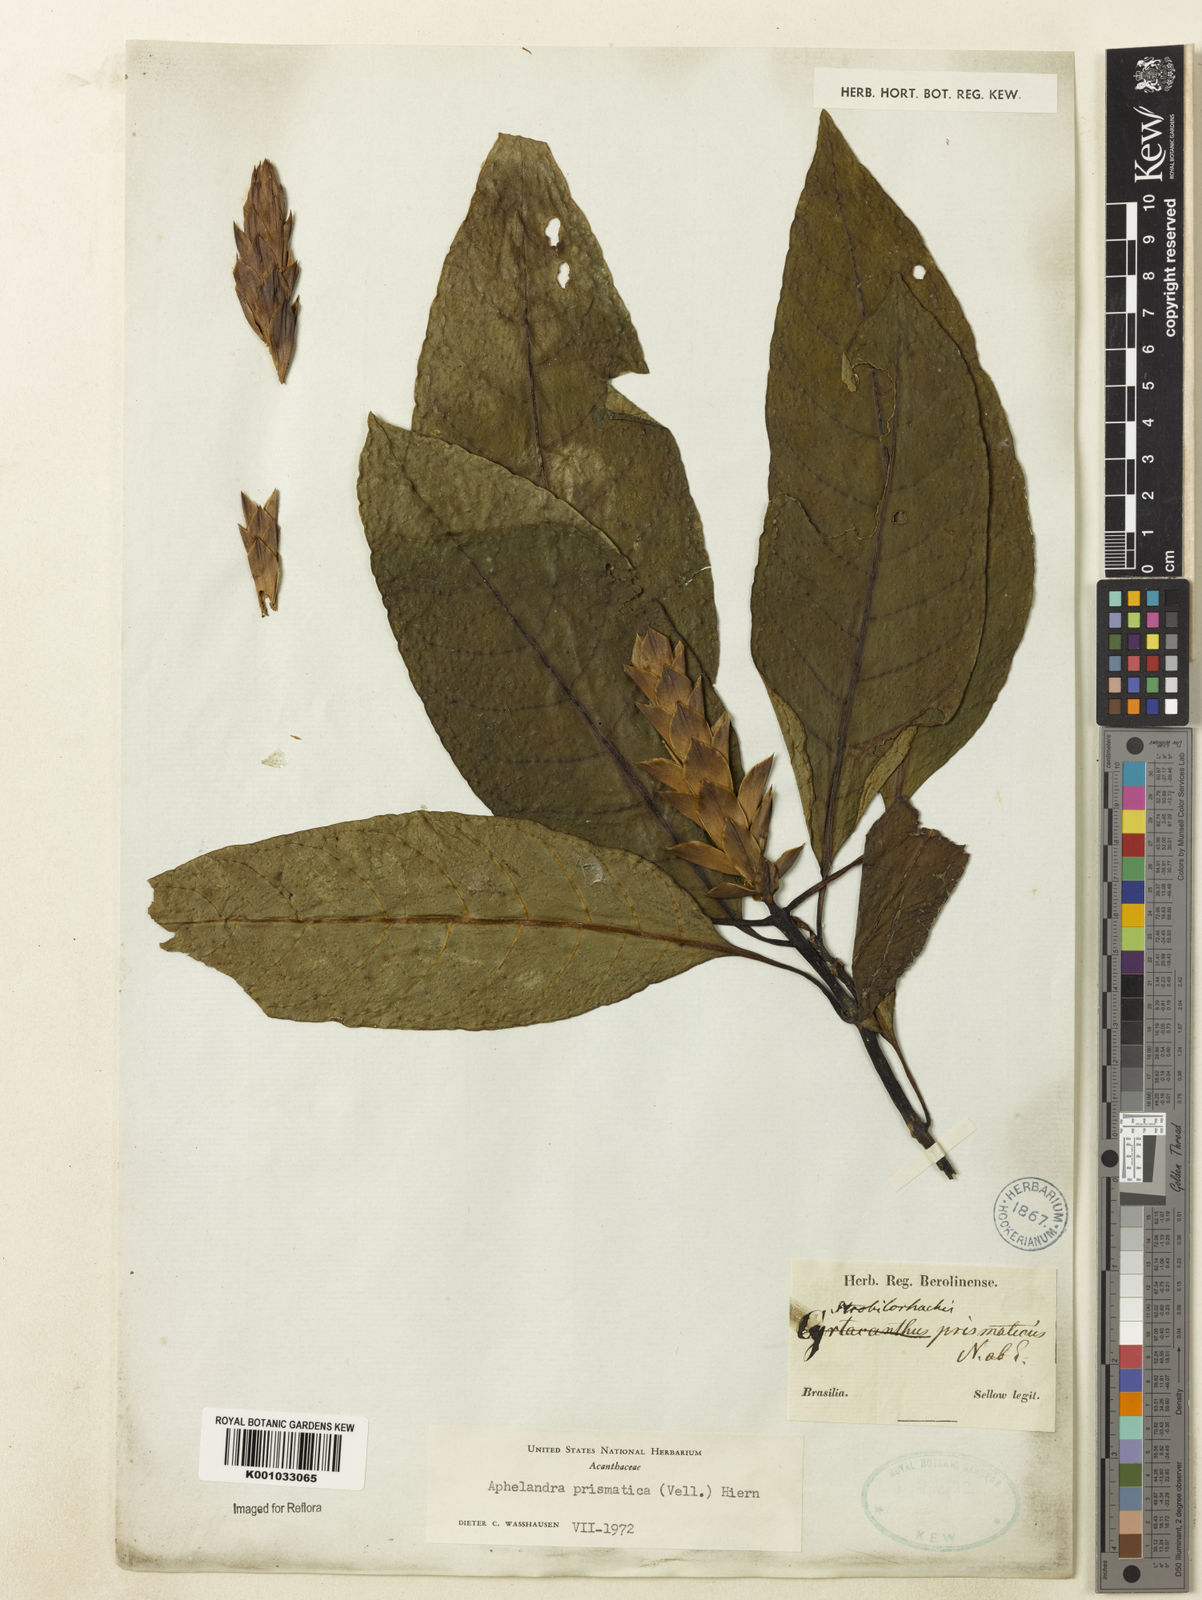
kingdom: Plantae
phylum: Tracheophyta
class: Magnoliopsida
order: Lamiales
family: Acanthaceae
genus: Aphelandra
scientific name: Aphelandra prismatica
